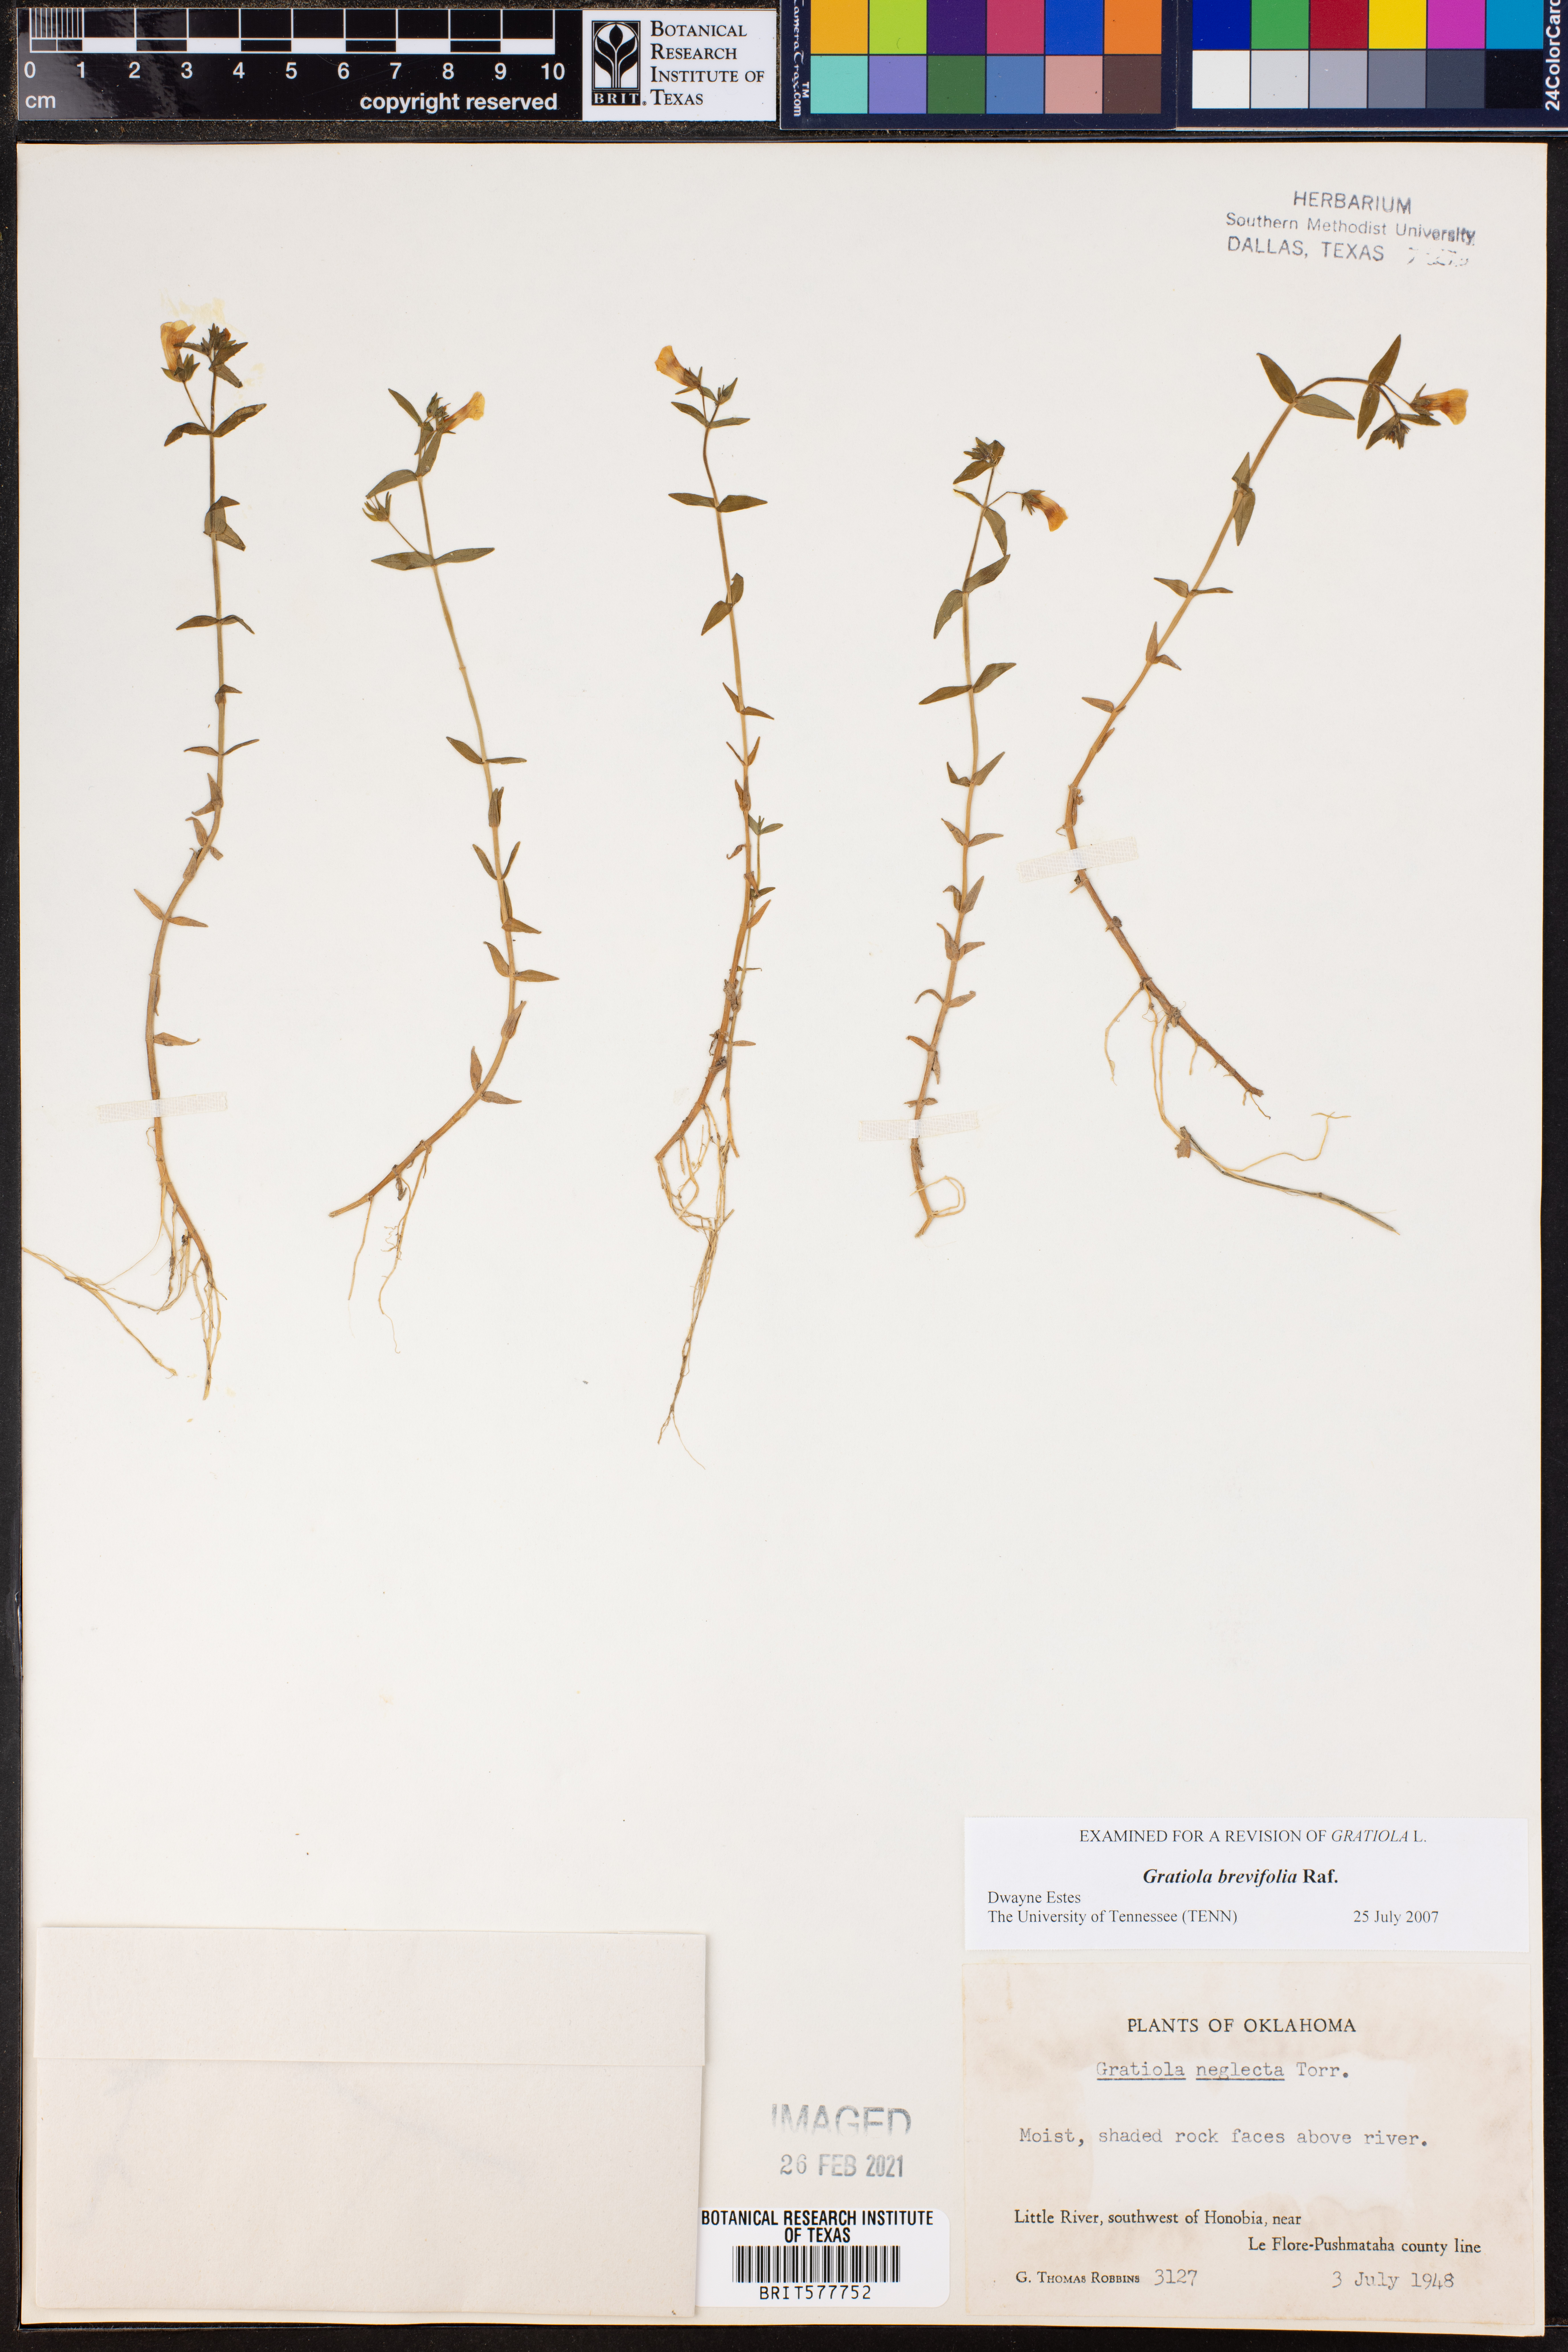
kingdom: Plantae
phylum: Tracheophyta
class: Magnoliopsida
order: Lamiales
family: Plantaginaceae
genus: Gratiola
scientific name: Gratiola brevifolia
